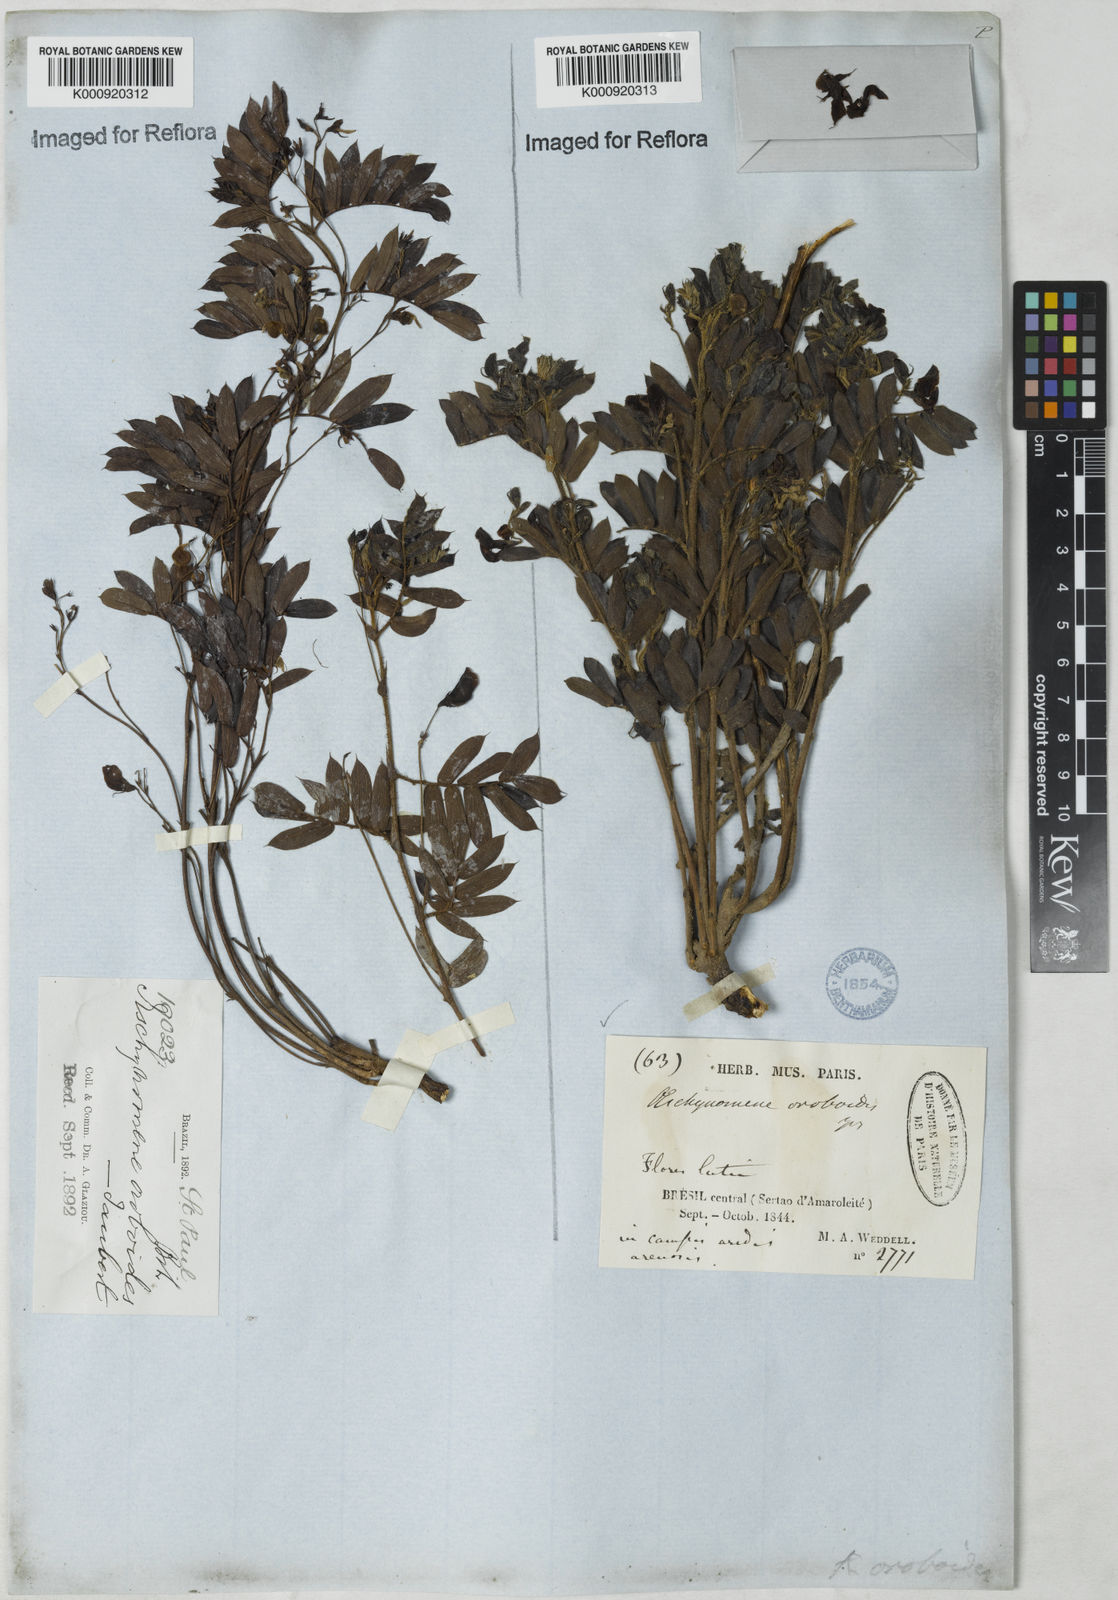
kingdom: Plantae
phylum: Tracheophyta
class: Magnoliopsida
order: Fabales
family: Fabaceae
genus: Ctenodon
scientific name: Ctenodon oroboides
